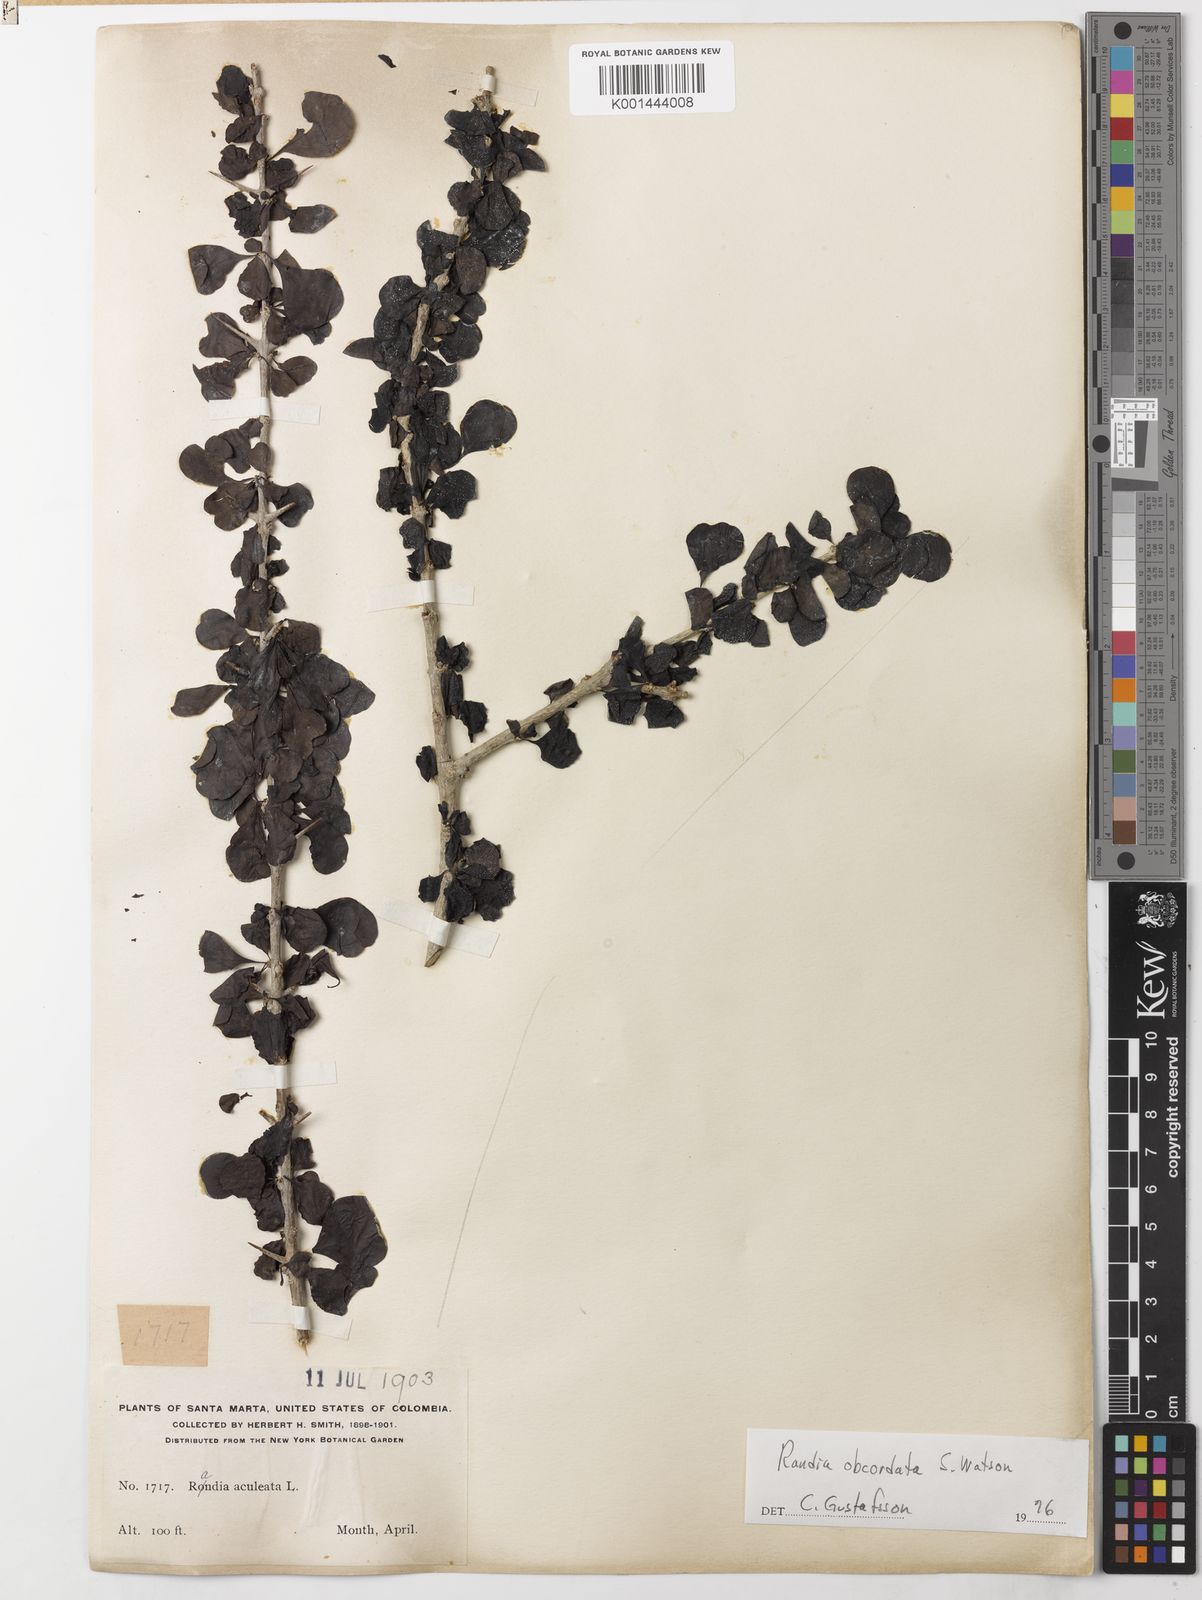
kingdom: Plantae
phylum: Tracheophyta
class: Magnoliopsida
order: Gentianales
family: Rubiaceae
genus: Randia
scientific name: Randia obcordata
